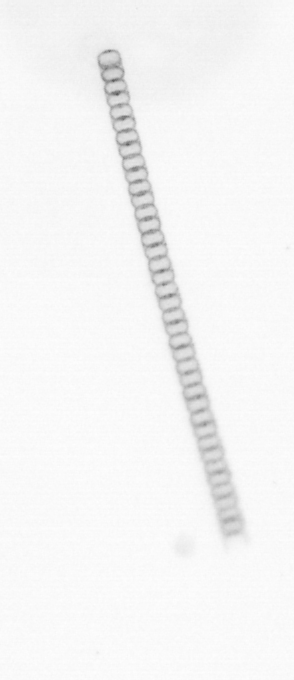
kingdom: Chromista
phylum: Ochrophyta
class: Bacillariophyceae
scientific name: Bacillariophyceae
